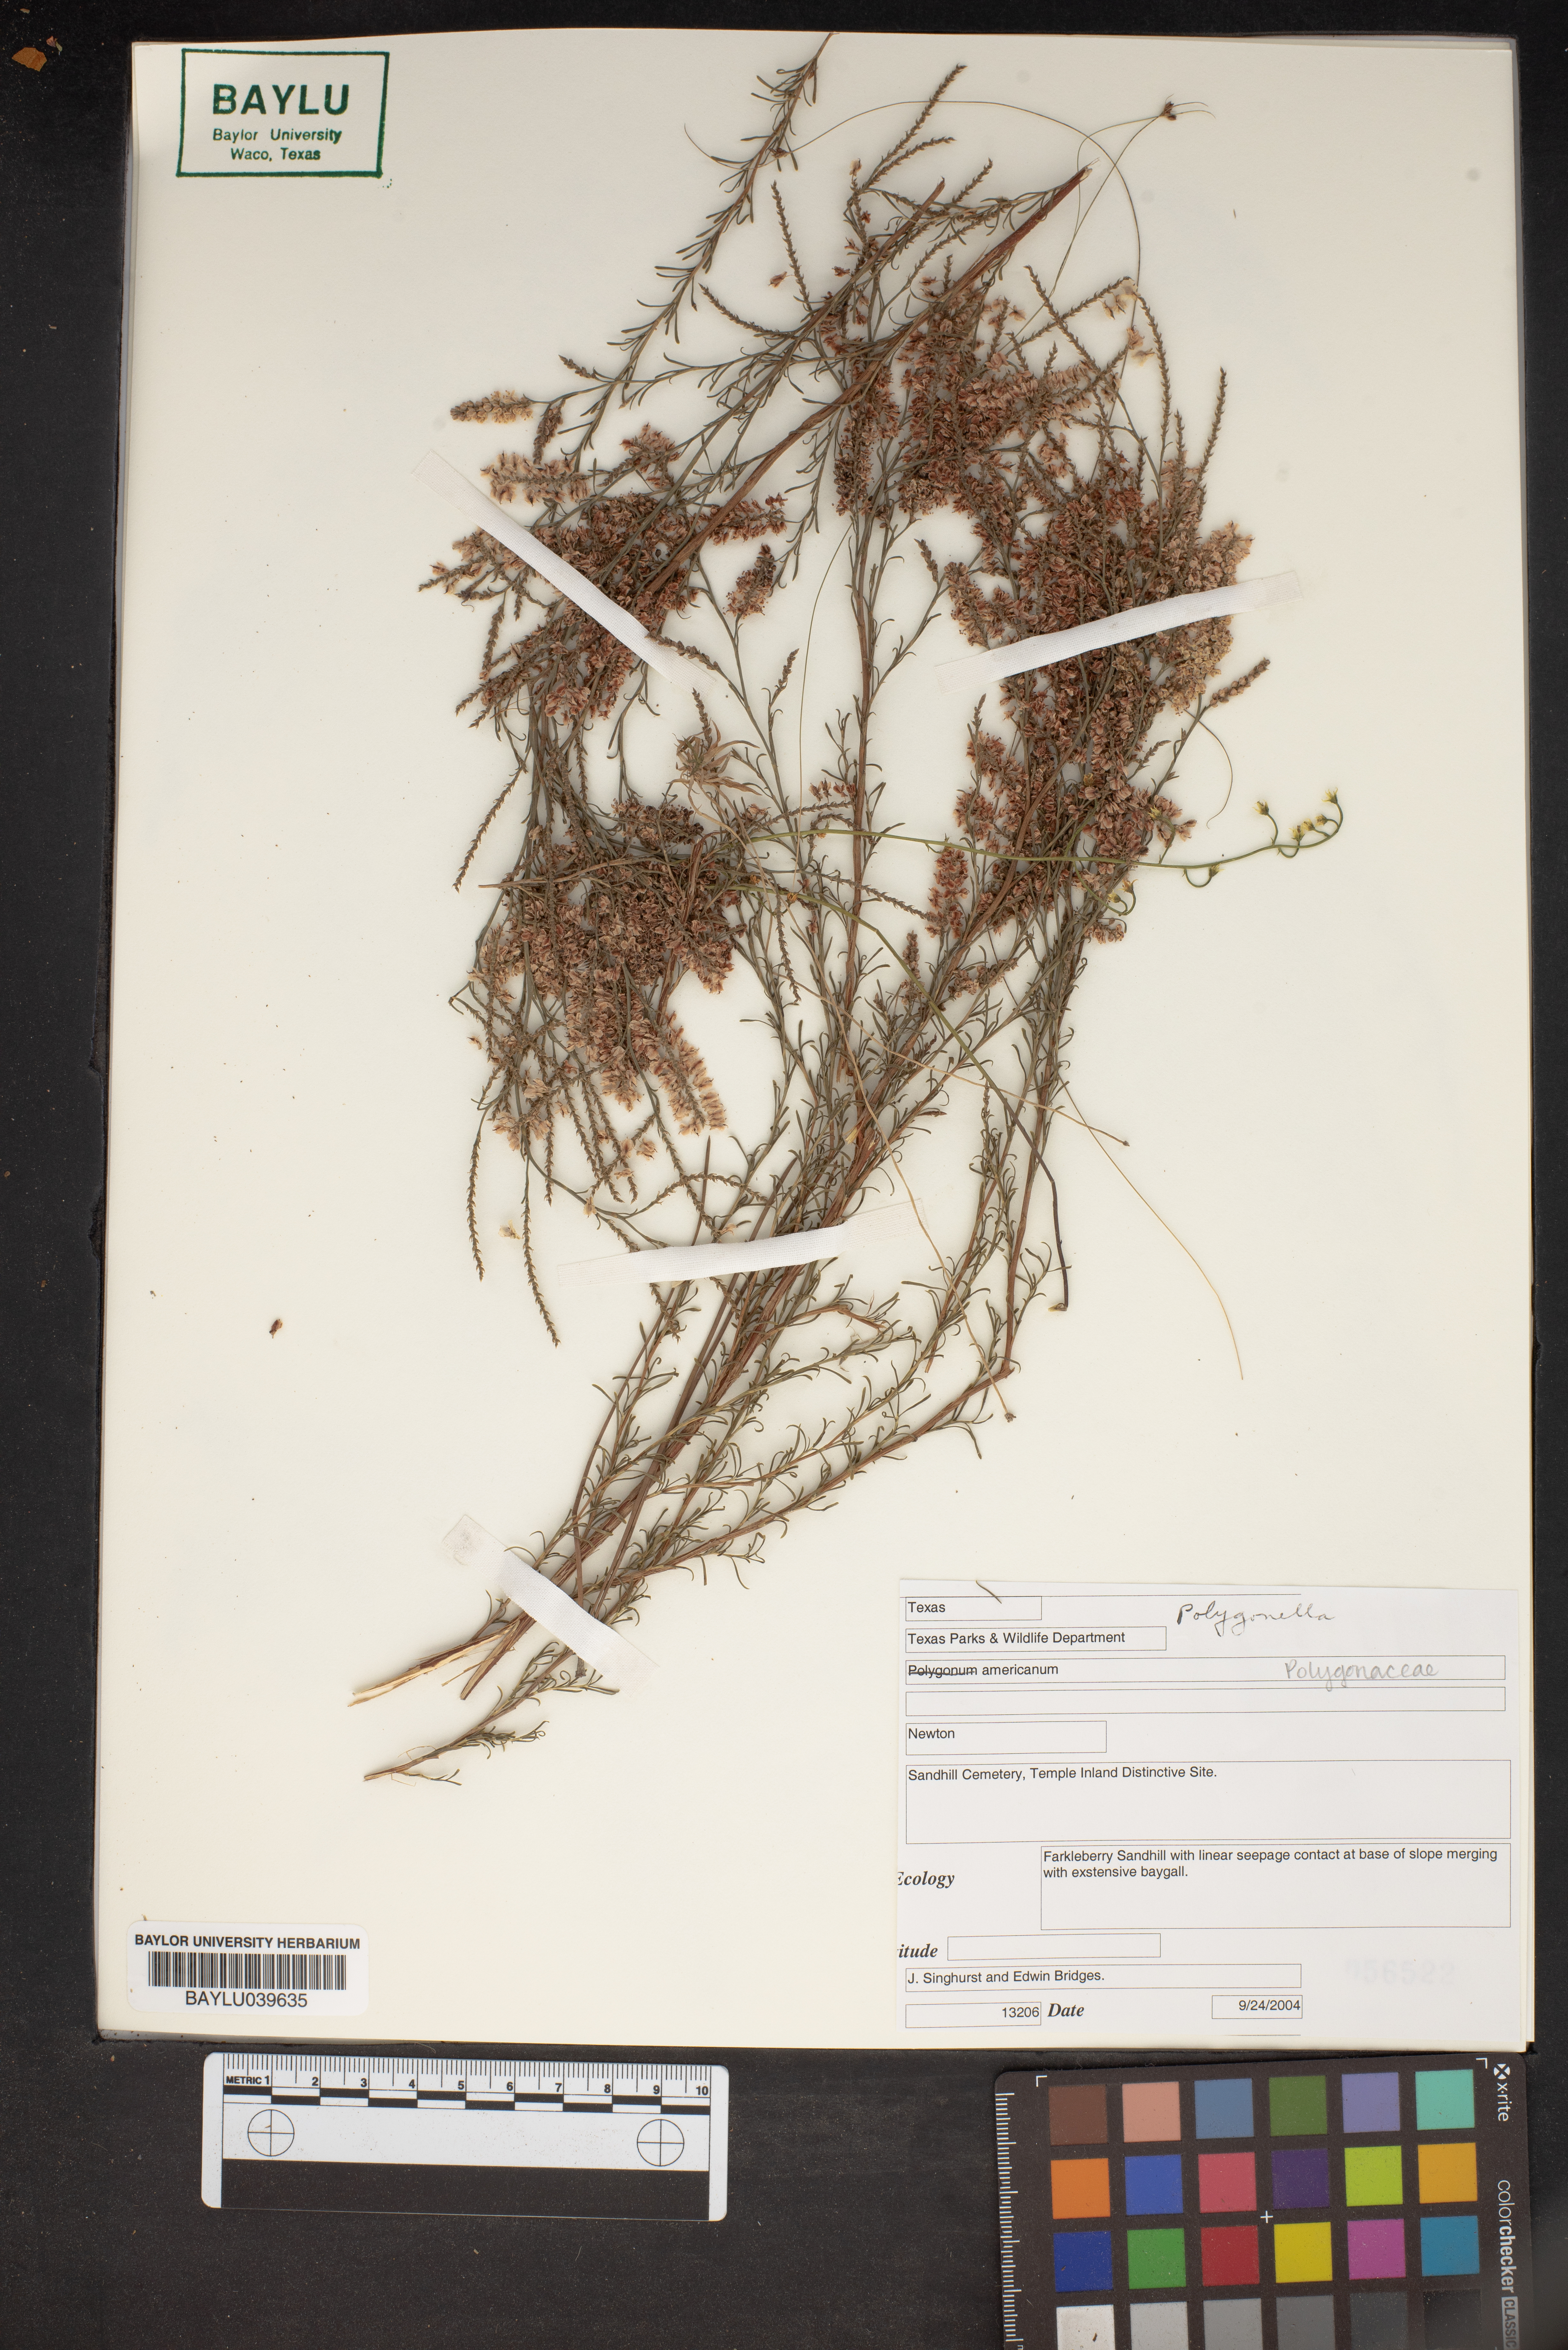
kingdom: Plantae
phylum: Tracheophyta
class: Magnoliopsida
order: Caryophyllales
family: Polygonaceae
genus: Polygonella
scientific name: Polygonella americana
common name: Southern jointweed
